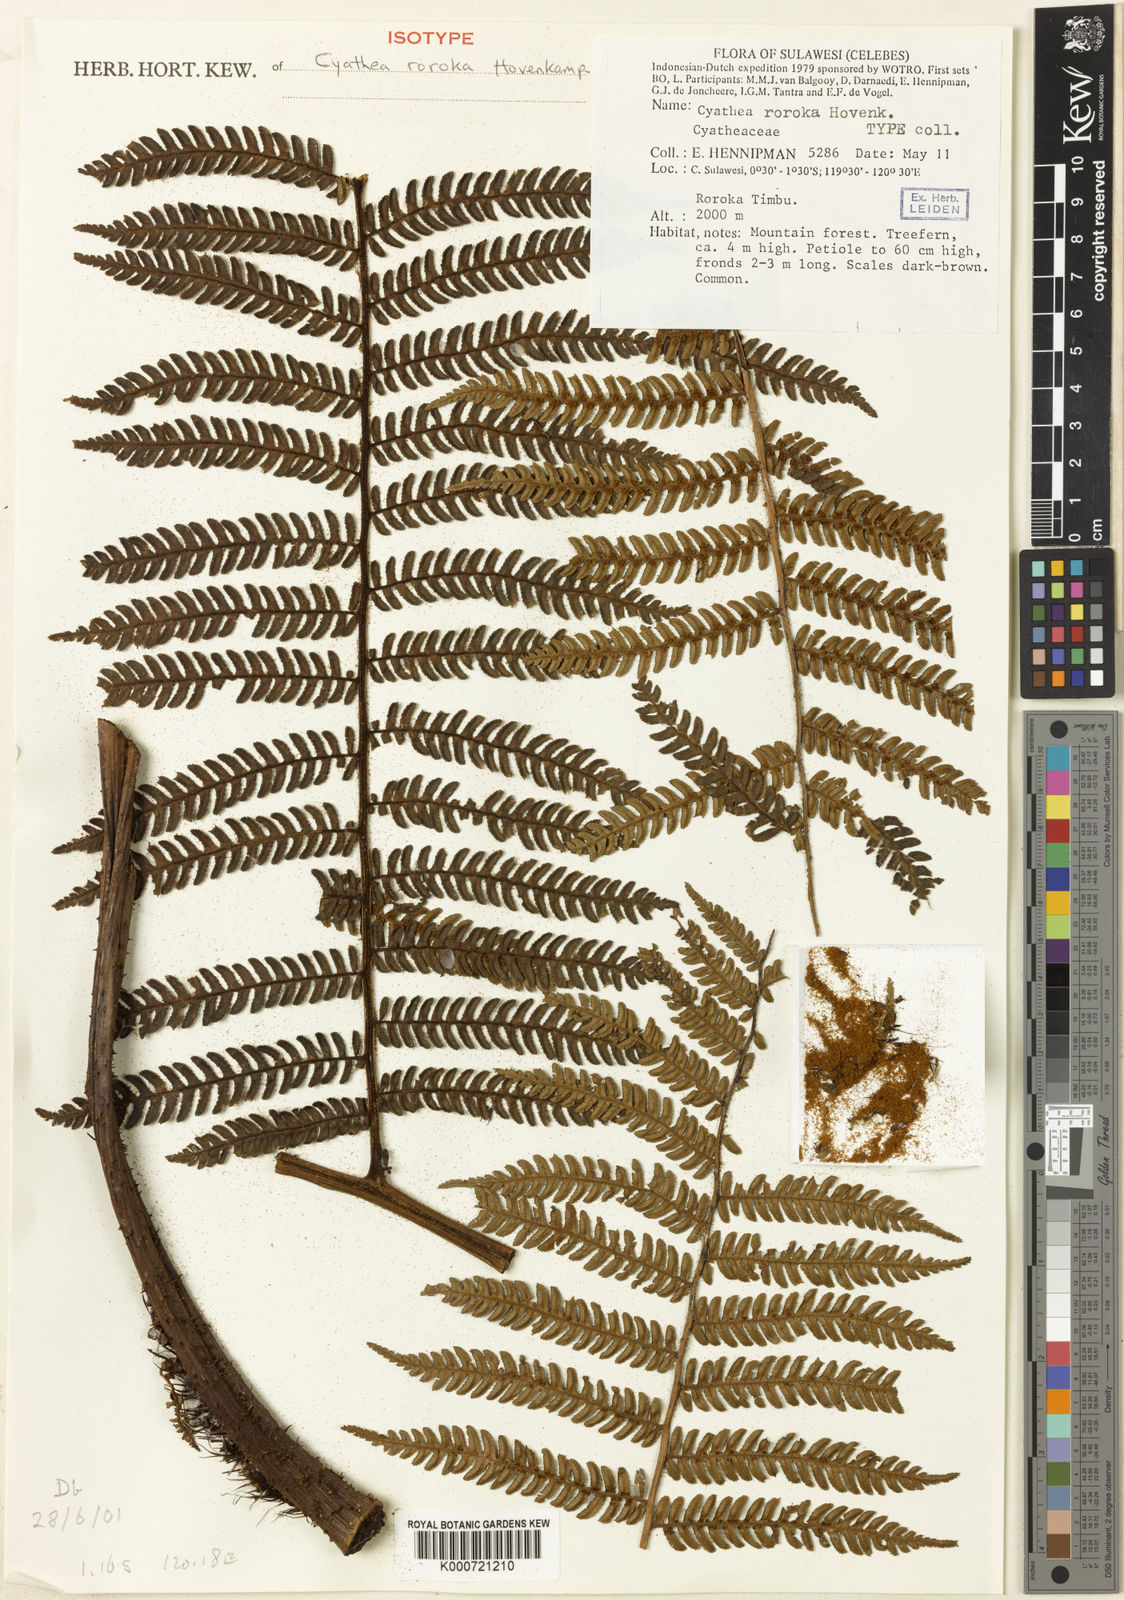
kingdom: Plantae
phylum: Tracheophyta
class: Polypodiopsida
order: Cyatheales
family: Cyatheaceae
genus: Alsophila
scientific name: Alsophila roroka
